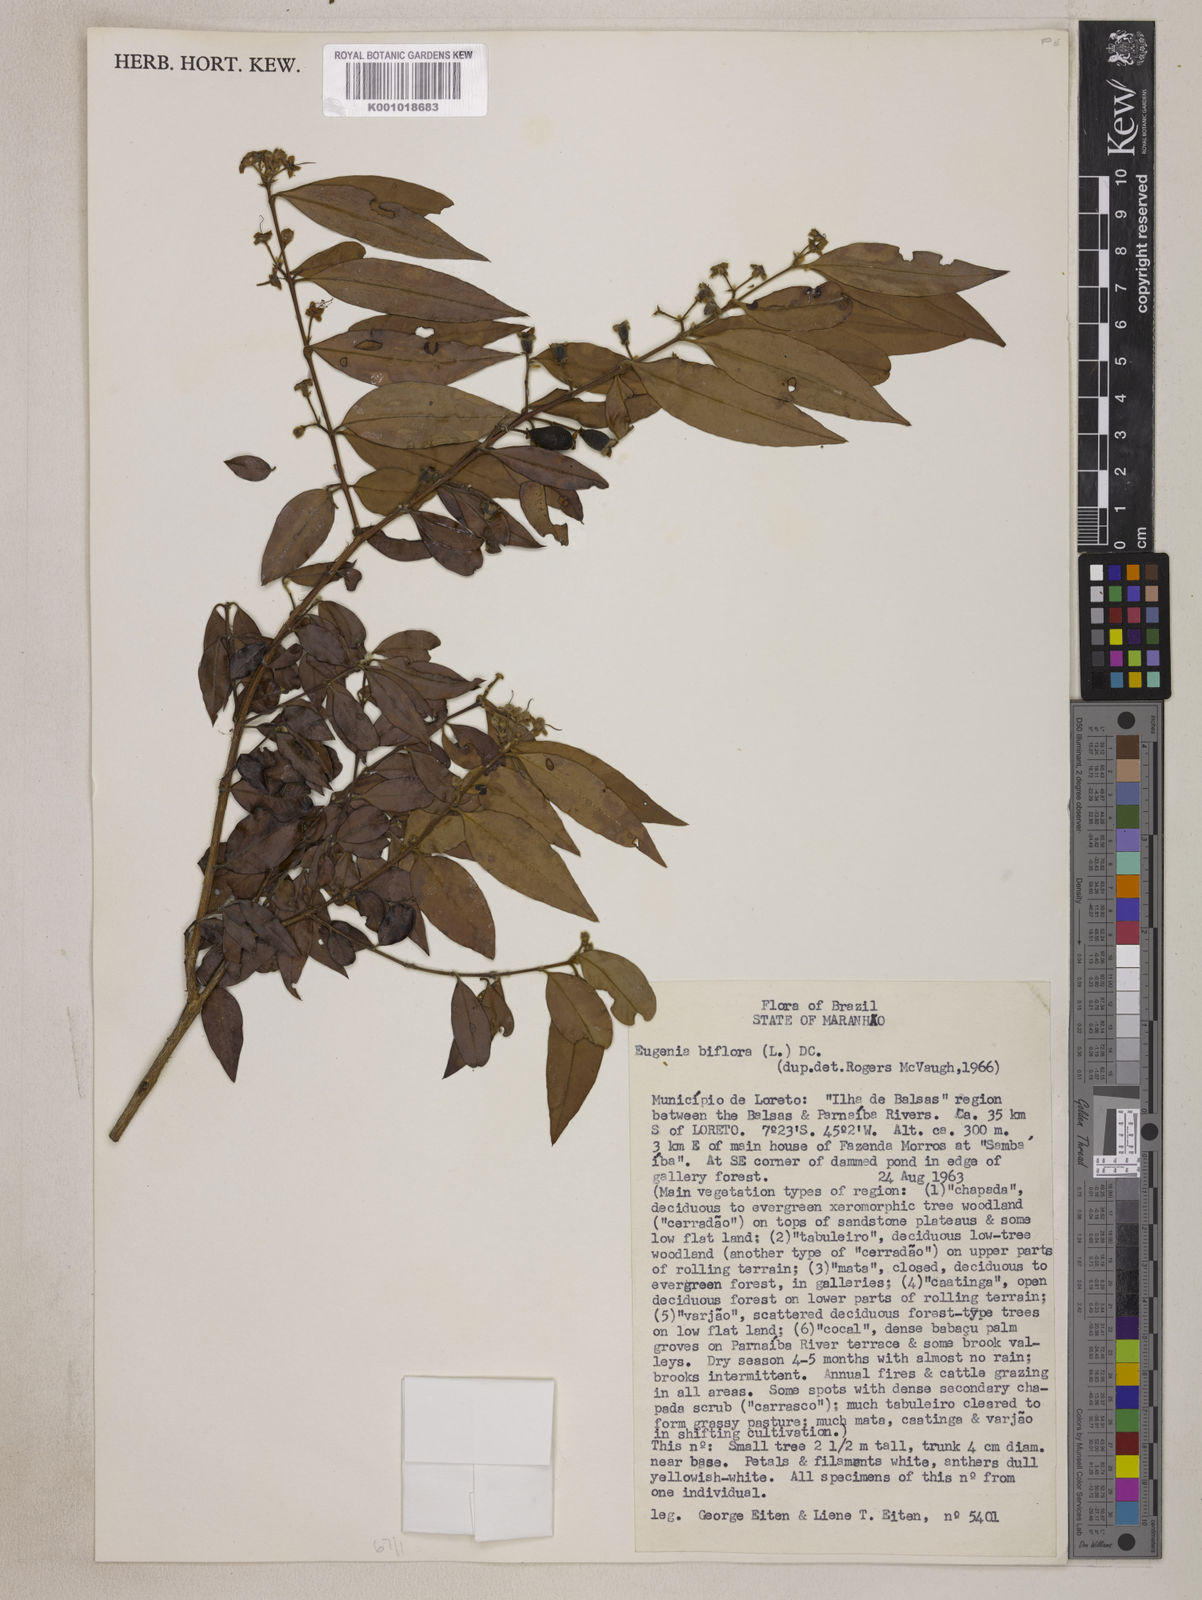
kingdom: Plantae
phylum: Tracheophyta
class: Magnoliopsida
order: Myrtales
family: Myrtaceae
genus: Eugenia
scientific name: Eugenia biflora
